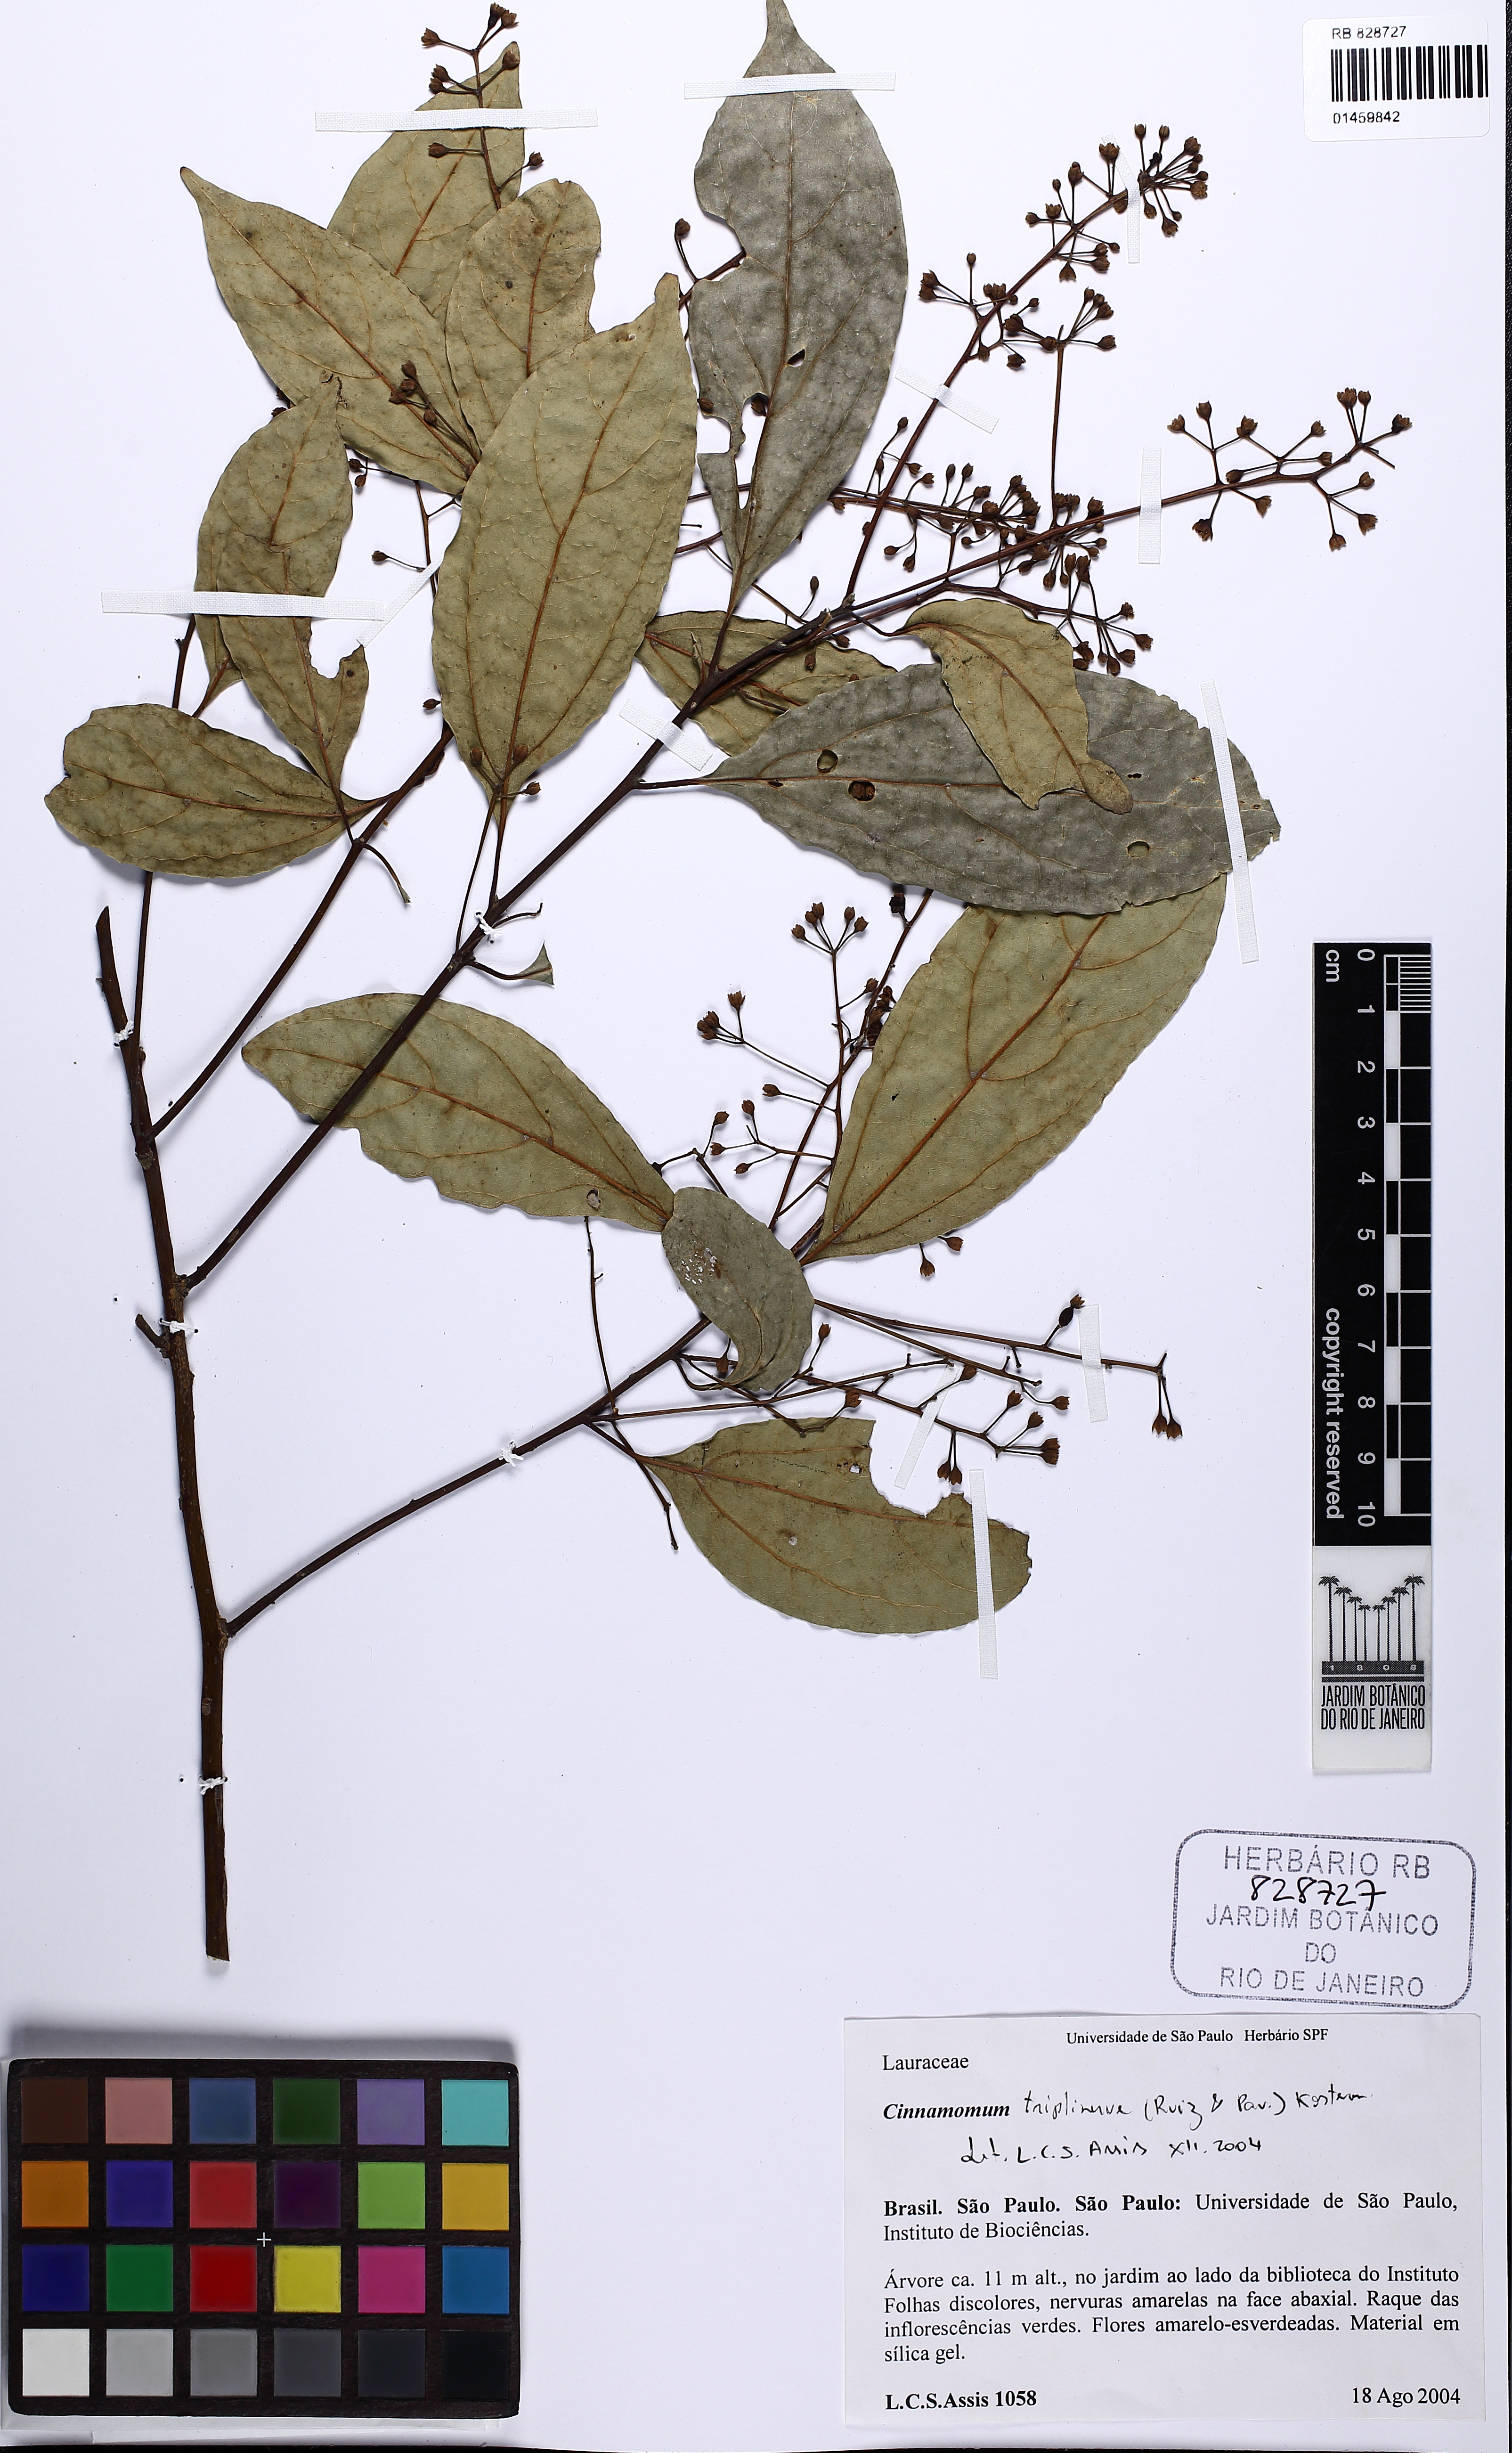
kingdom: Plantae
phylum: Tracheophyta
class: Magnoliopsida
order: Laurales
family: Lauraceae
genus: Aiouea
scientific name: Aiouea montana
